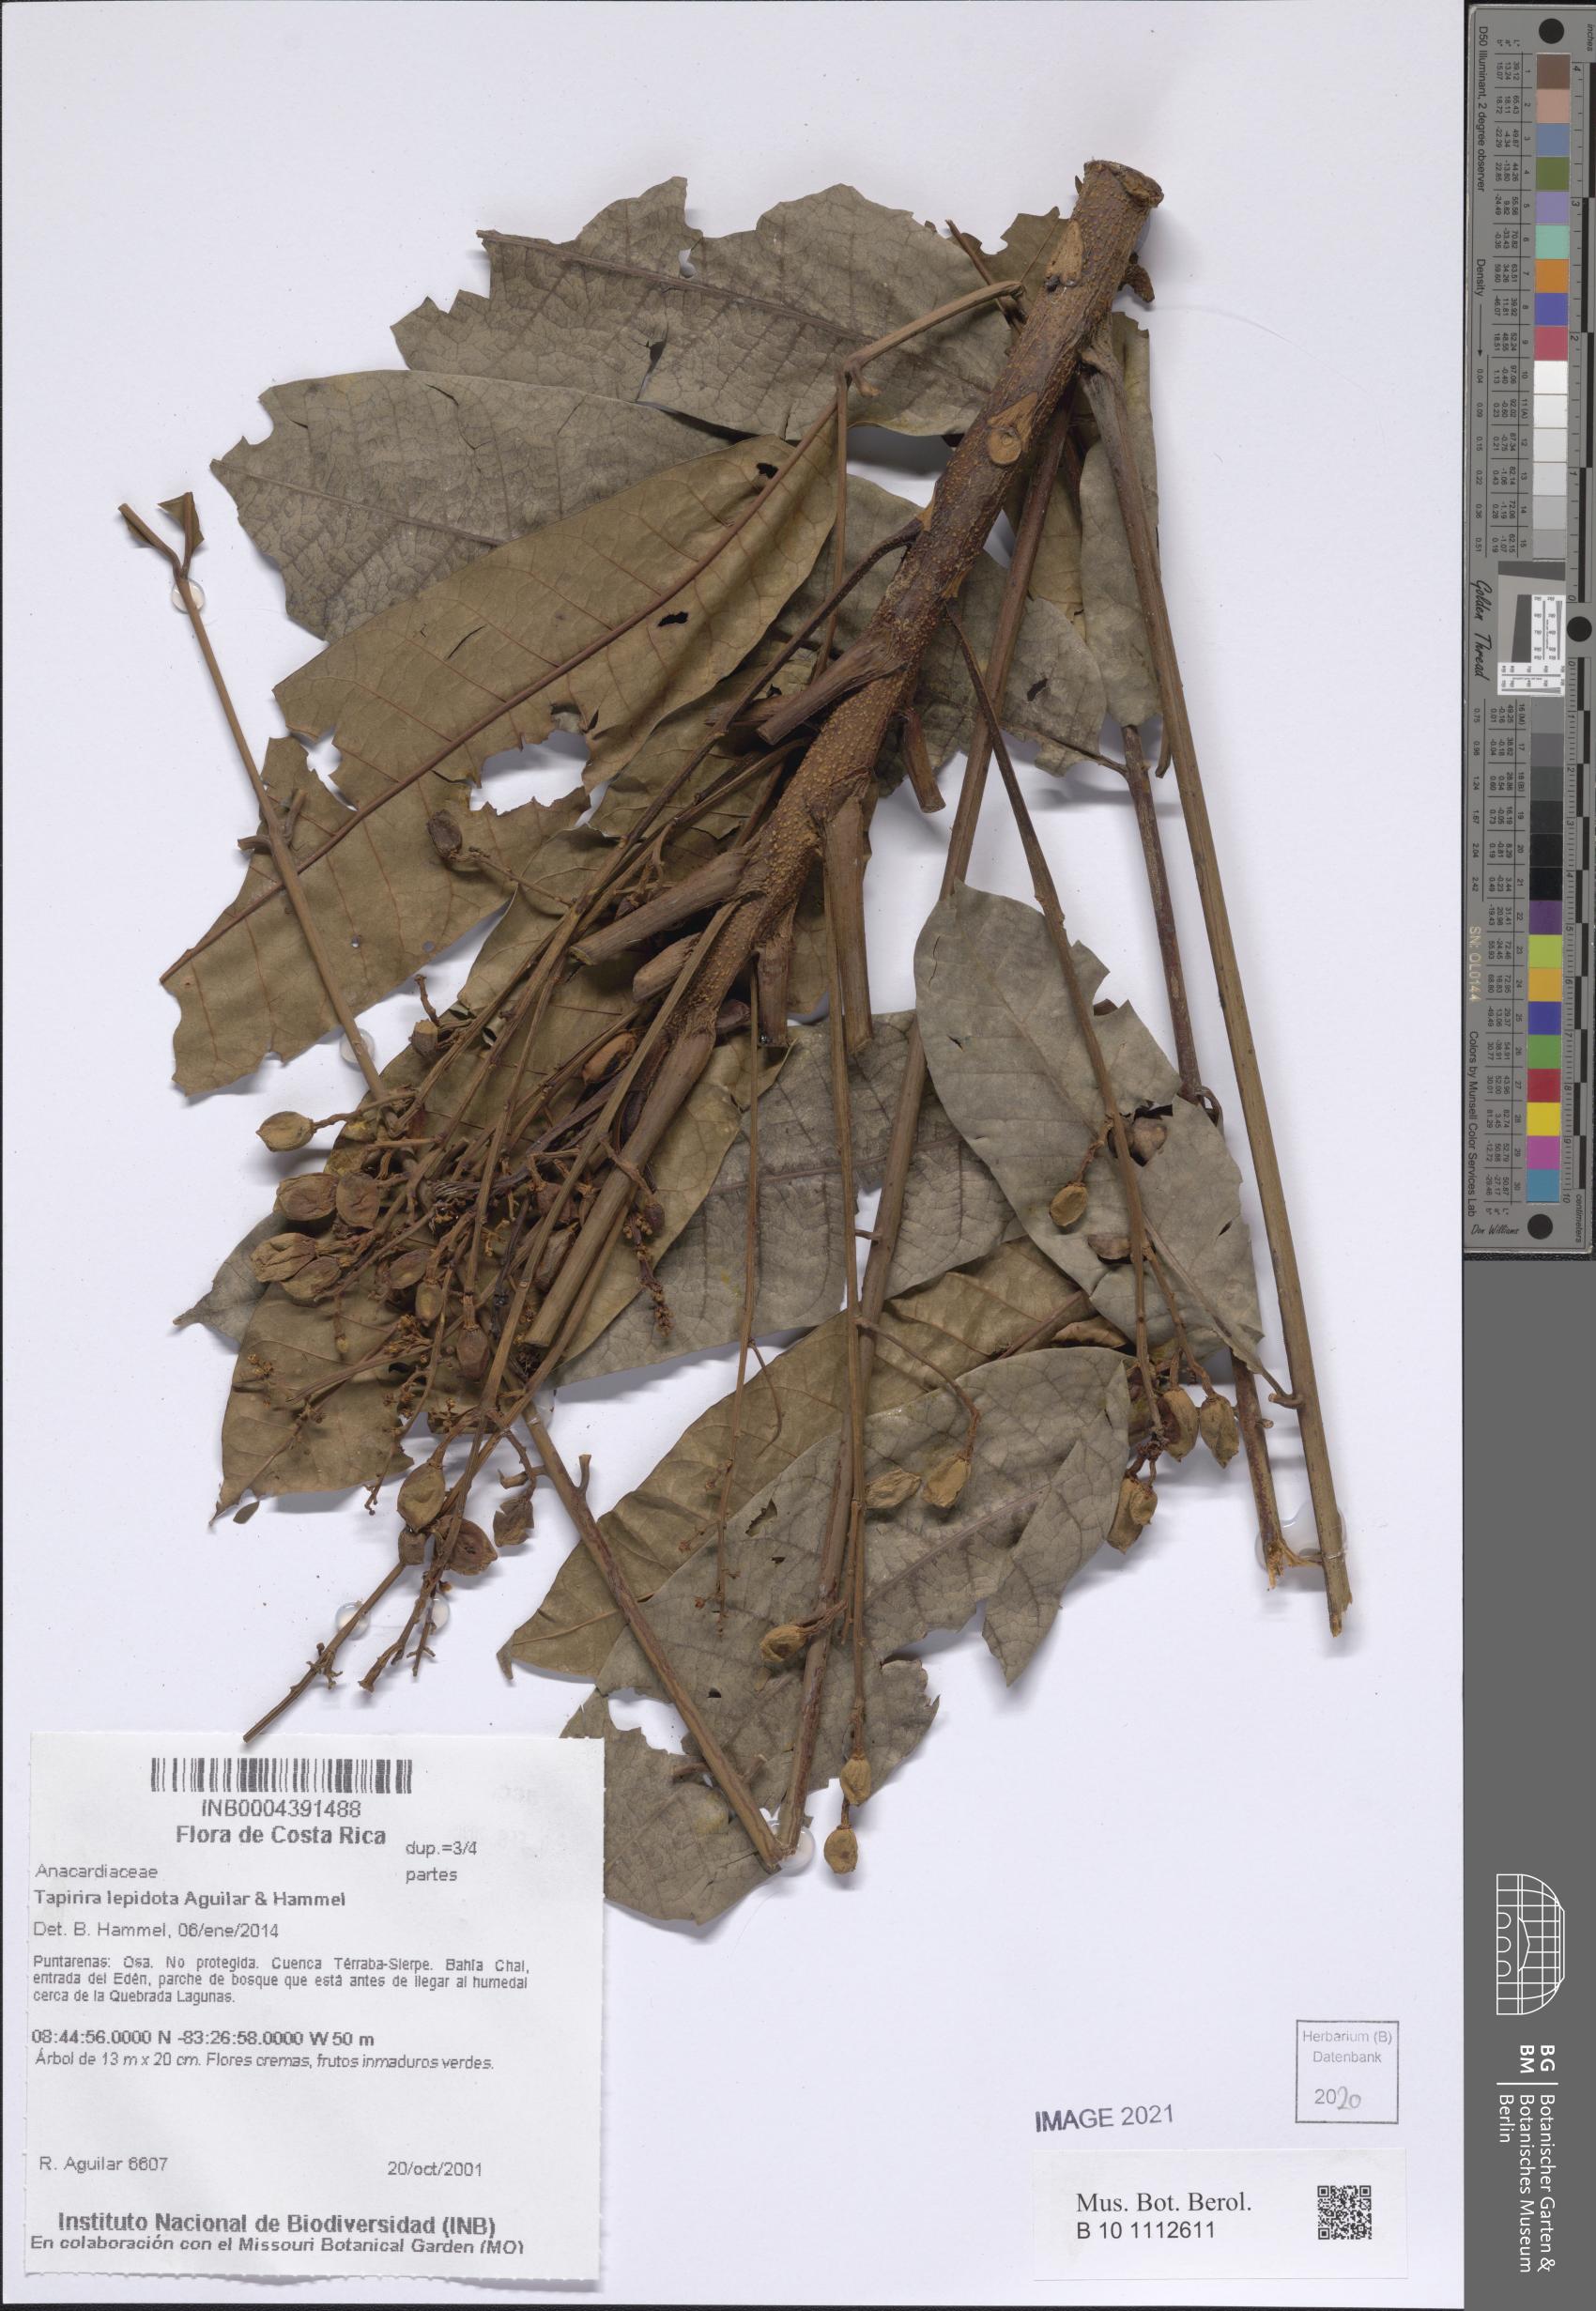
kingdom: Plantae
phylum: Tracheophyta
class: Magnoliopsida
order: Sapindales
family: Anacardiaceae
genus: Tapirira
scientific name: Tapirira lepidota
